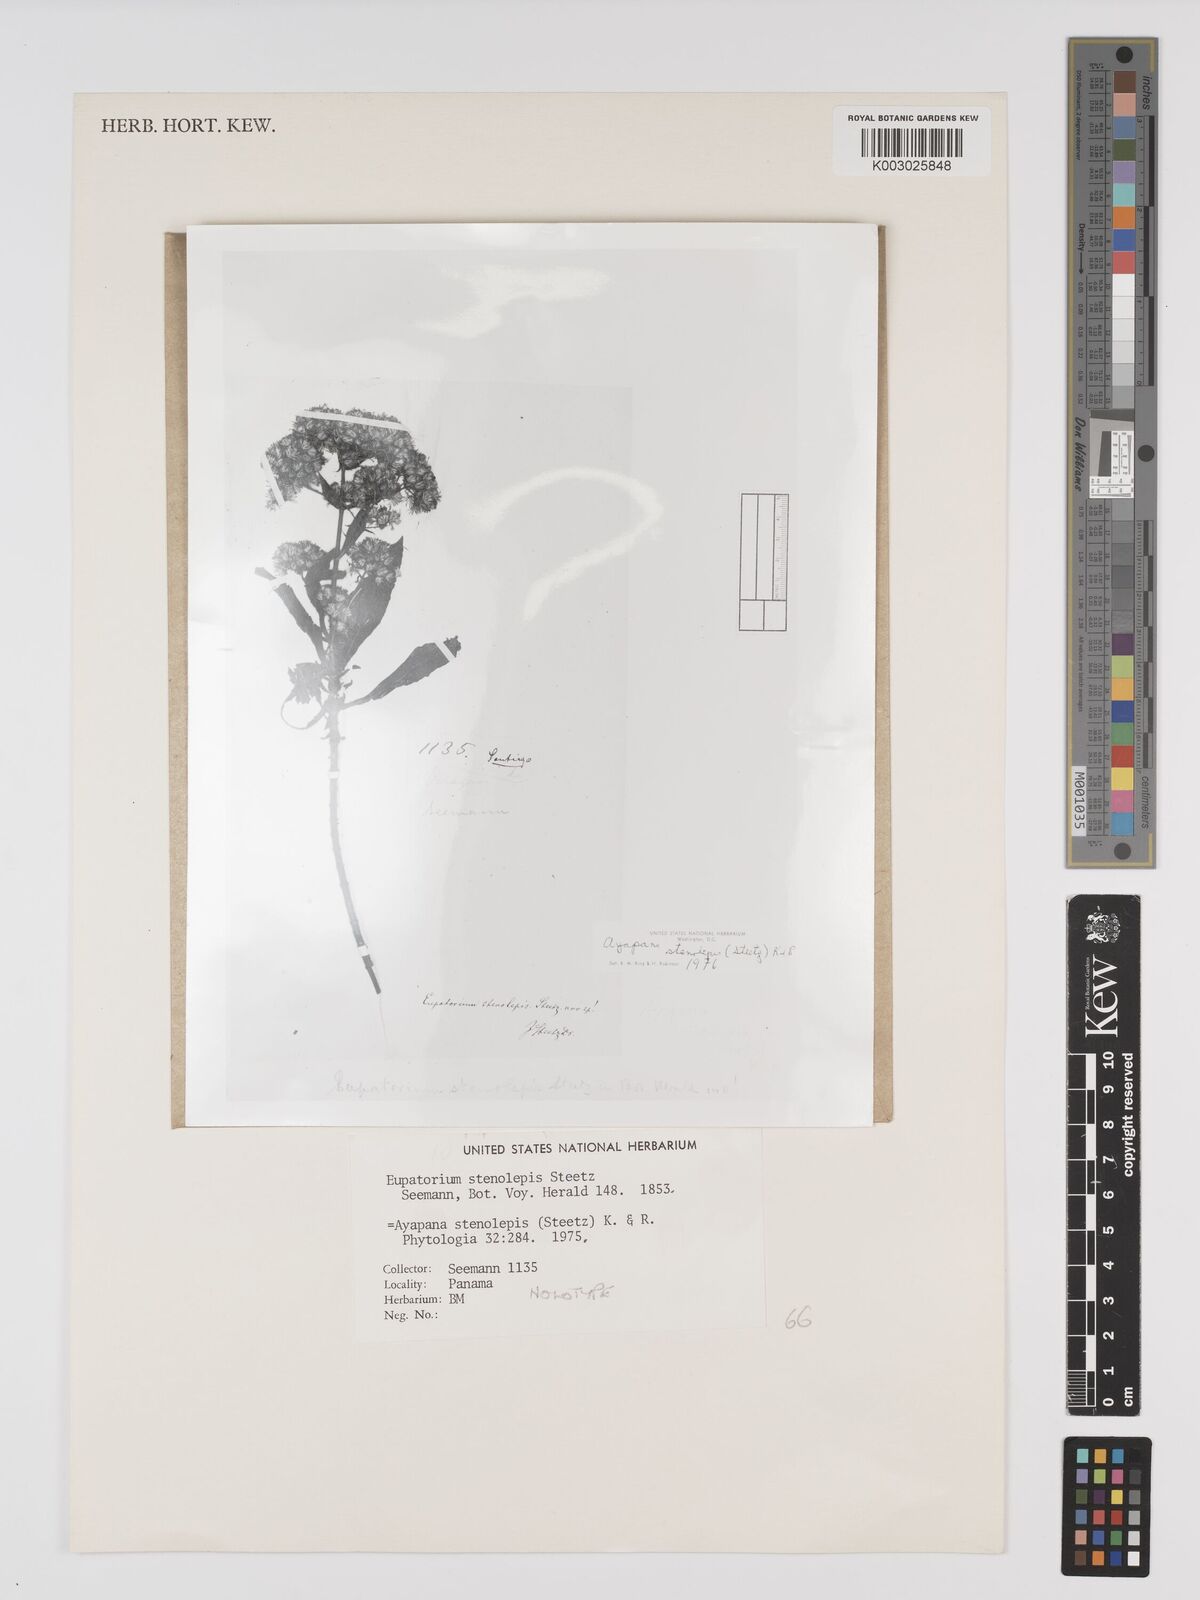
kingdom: Plantae
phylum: Tracheophyta
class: Magnoliopsida
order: Asterales
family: Asteraceae
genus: Ayapana
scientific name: Ayapana
